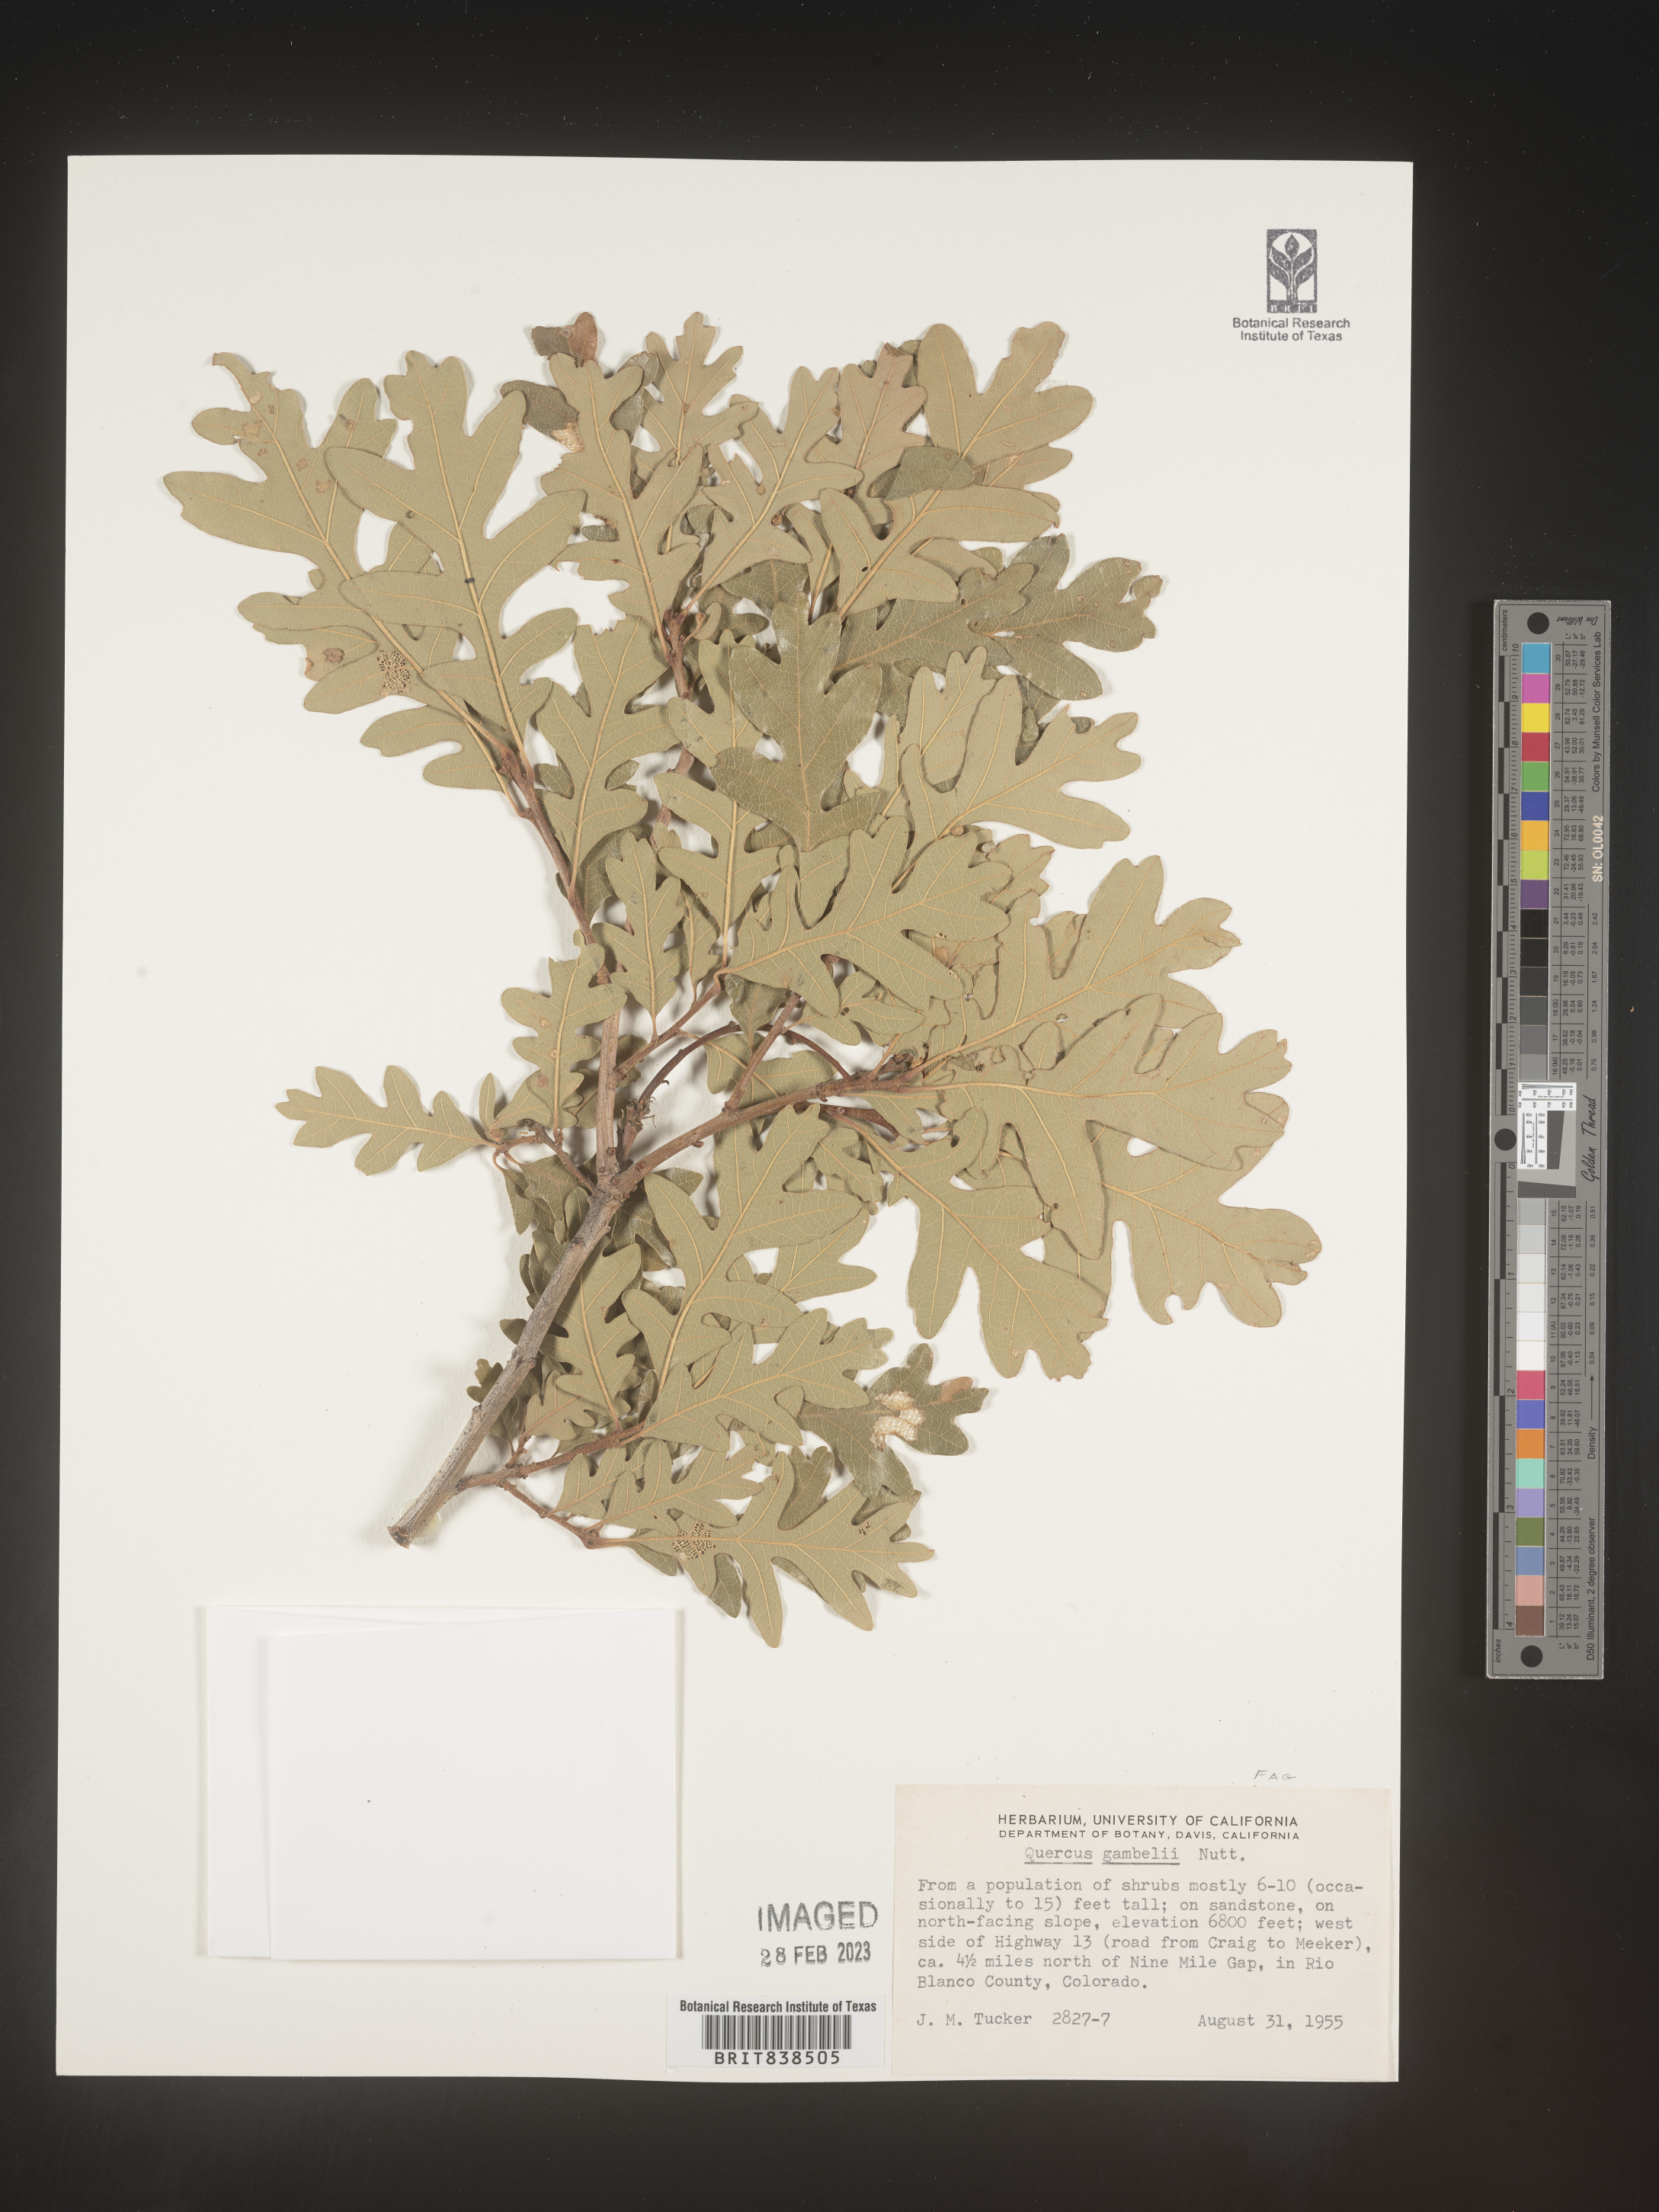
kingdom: Plantae
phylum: Tracheophyta
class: Magnoliopsida
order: Fagales
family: Fagaceae
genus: Quercus
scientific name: Quercus gambelii
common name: Gambel oak
